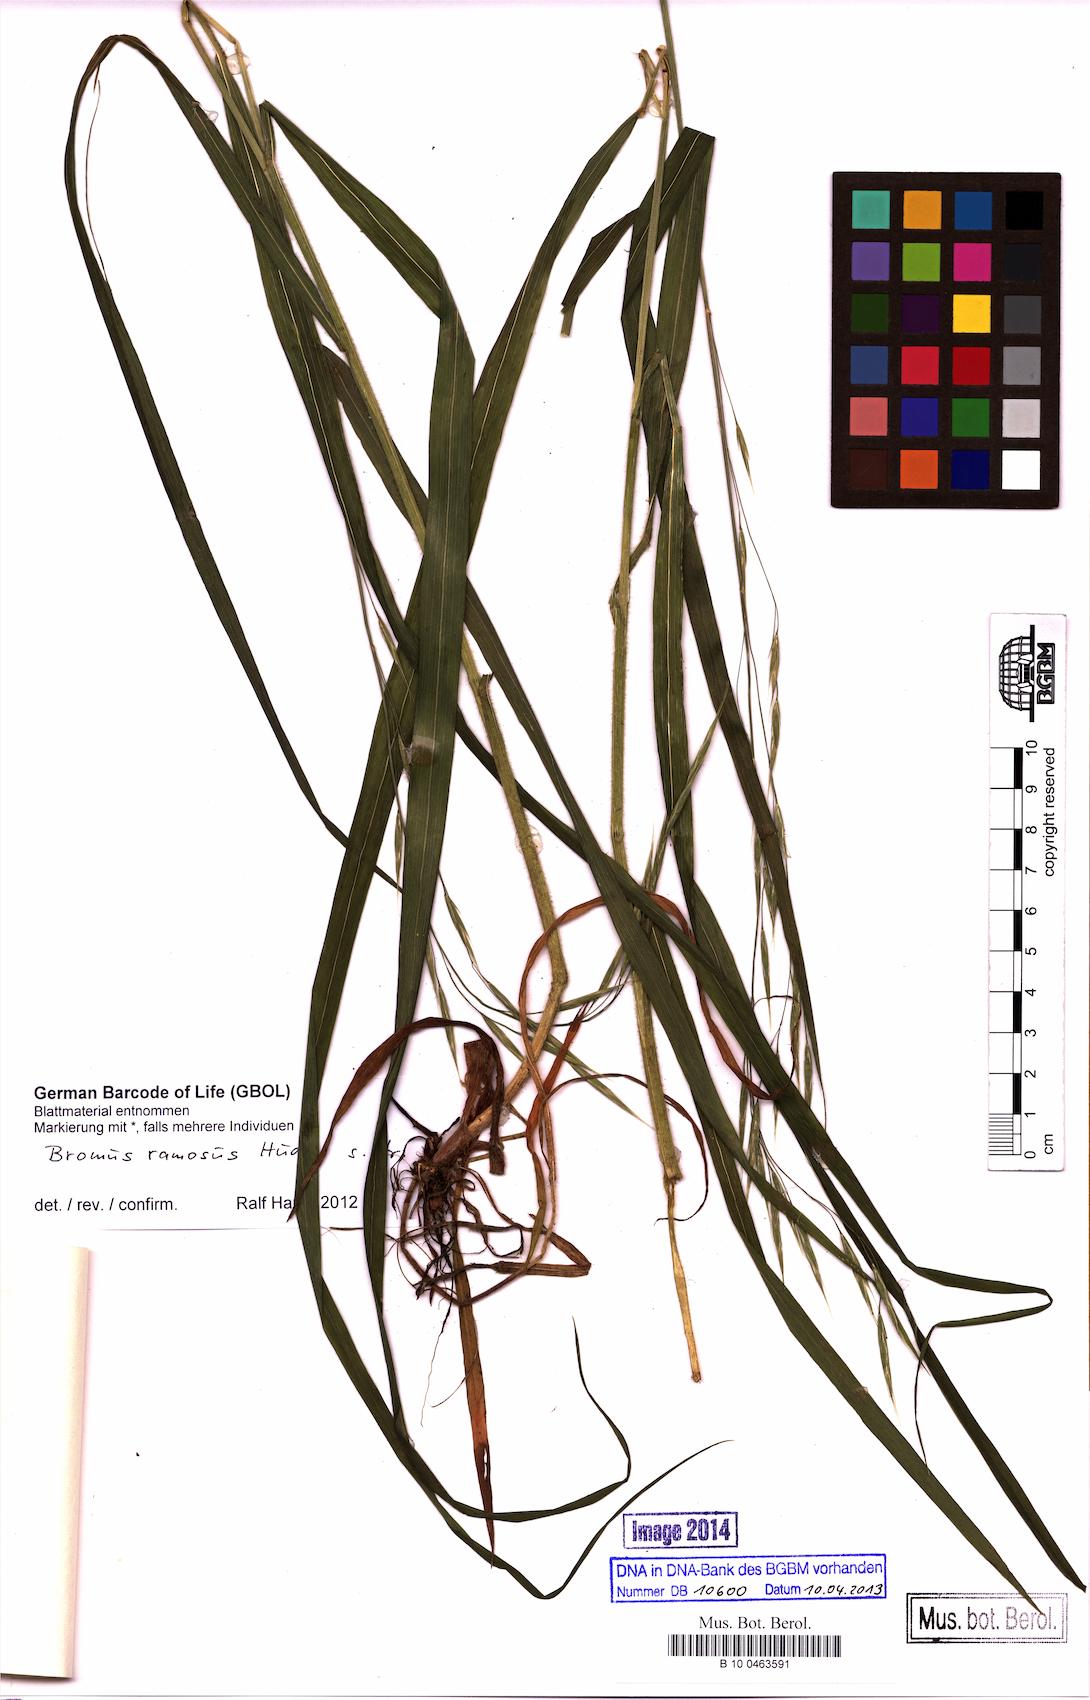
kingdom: Plantae
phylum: Tracheophyta
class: Liliopsida
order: Poales
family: Poaceae
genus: Bromus
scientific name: Bromus ramosus
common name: Hairy brome
